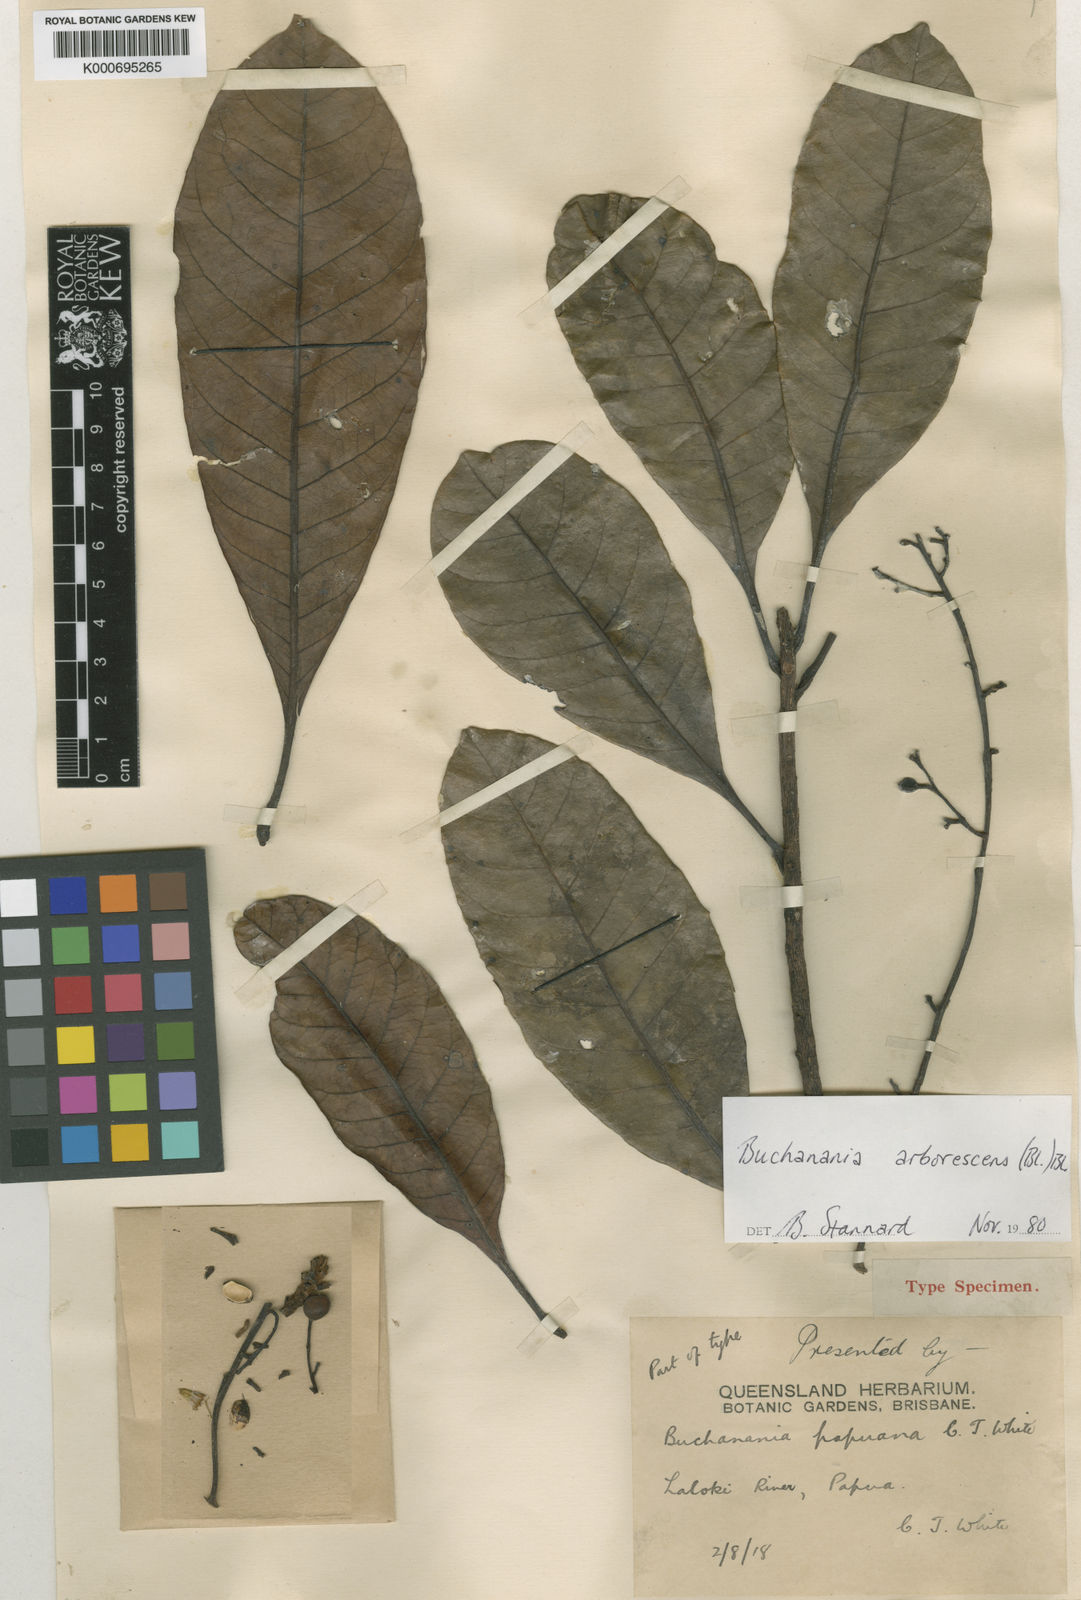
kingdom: Plantae
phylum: Tracheophyta
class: Magnoliopsida
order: Sapindales
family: Anacardiaceae
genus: Buchanania
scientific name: Buchanania arborescens
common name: Sparrow’s mango
